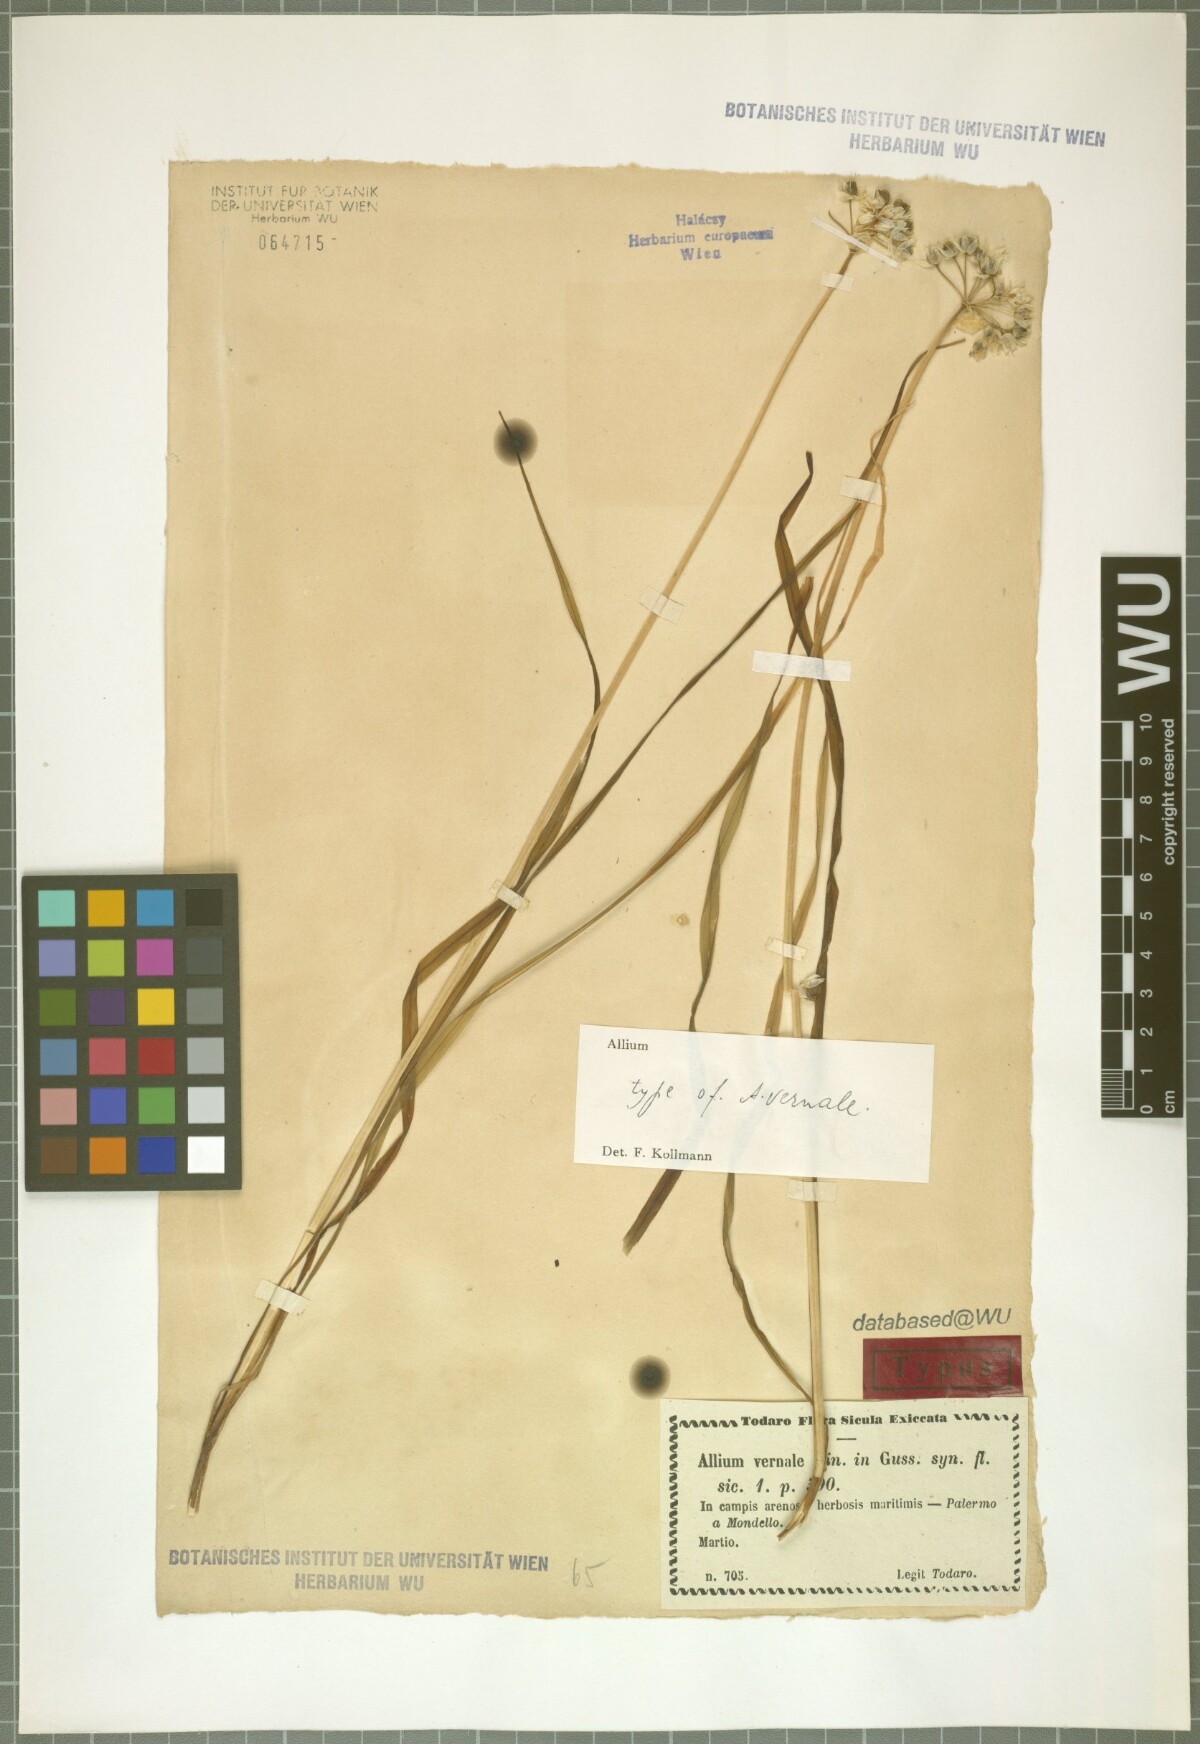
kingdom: Plantae
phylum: Tracheophyta
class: Liliopsida
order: Asparagales
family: Amaryllidaceae
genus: Allium
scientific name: Allium subvillosum
